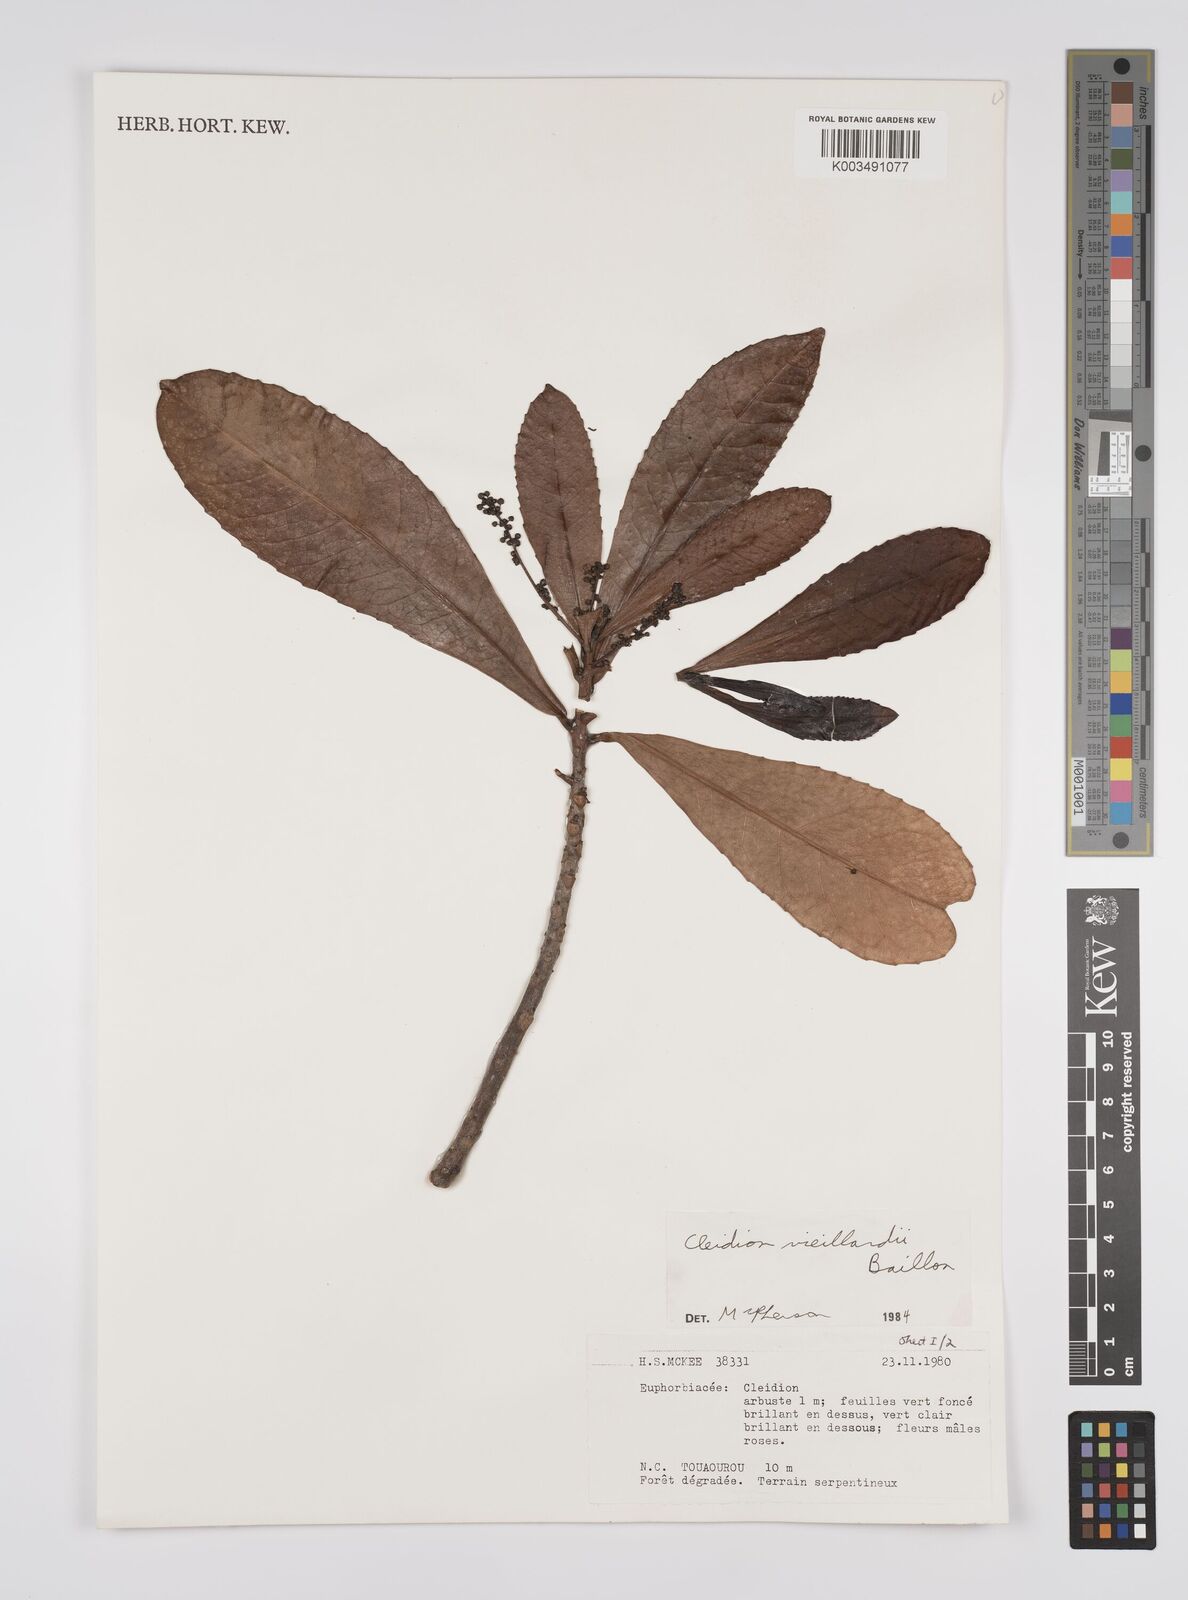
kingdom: Plantae
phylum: Tracheophyta
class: Magnoliopsida
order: Malpighiales
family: Euphorbiaceae
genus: Cleidion
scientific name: Cleidion vieillardii
